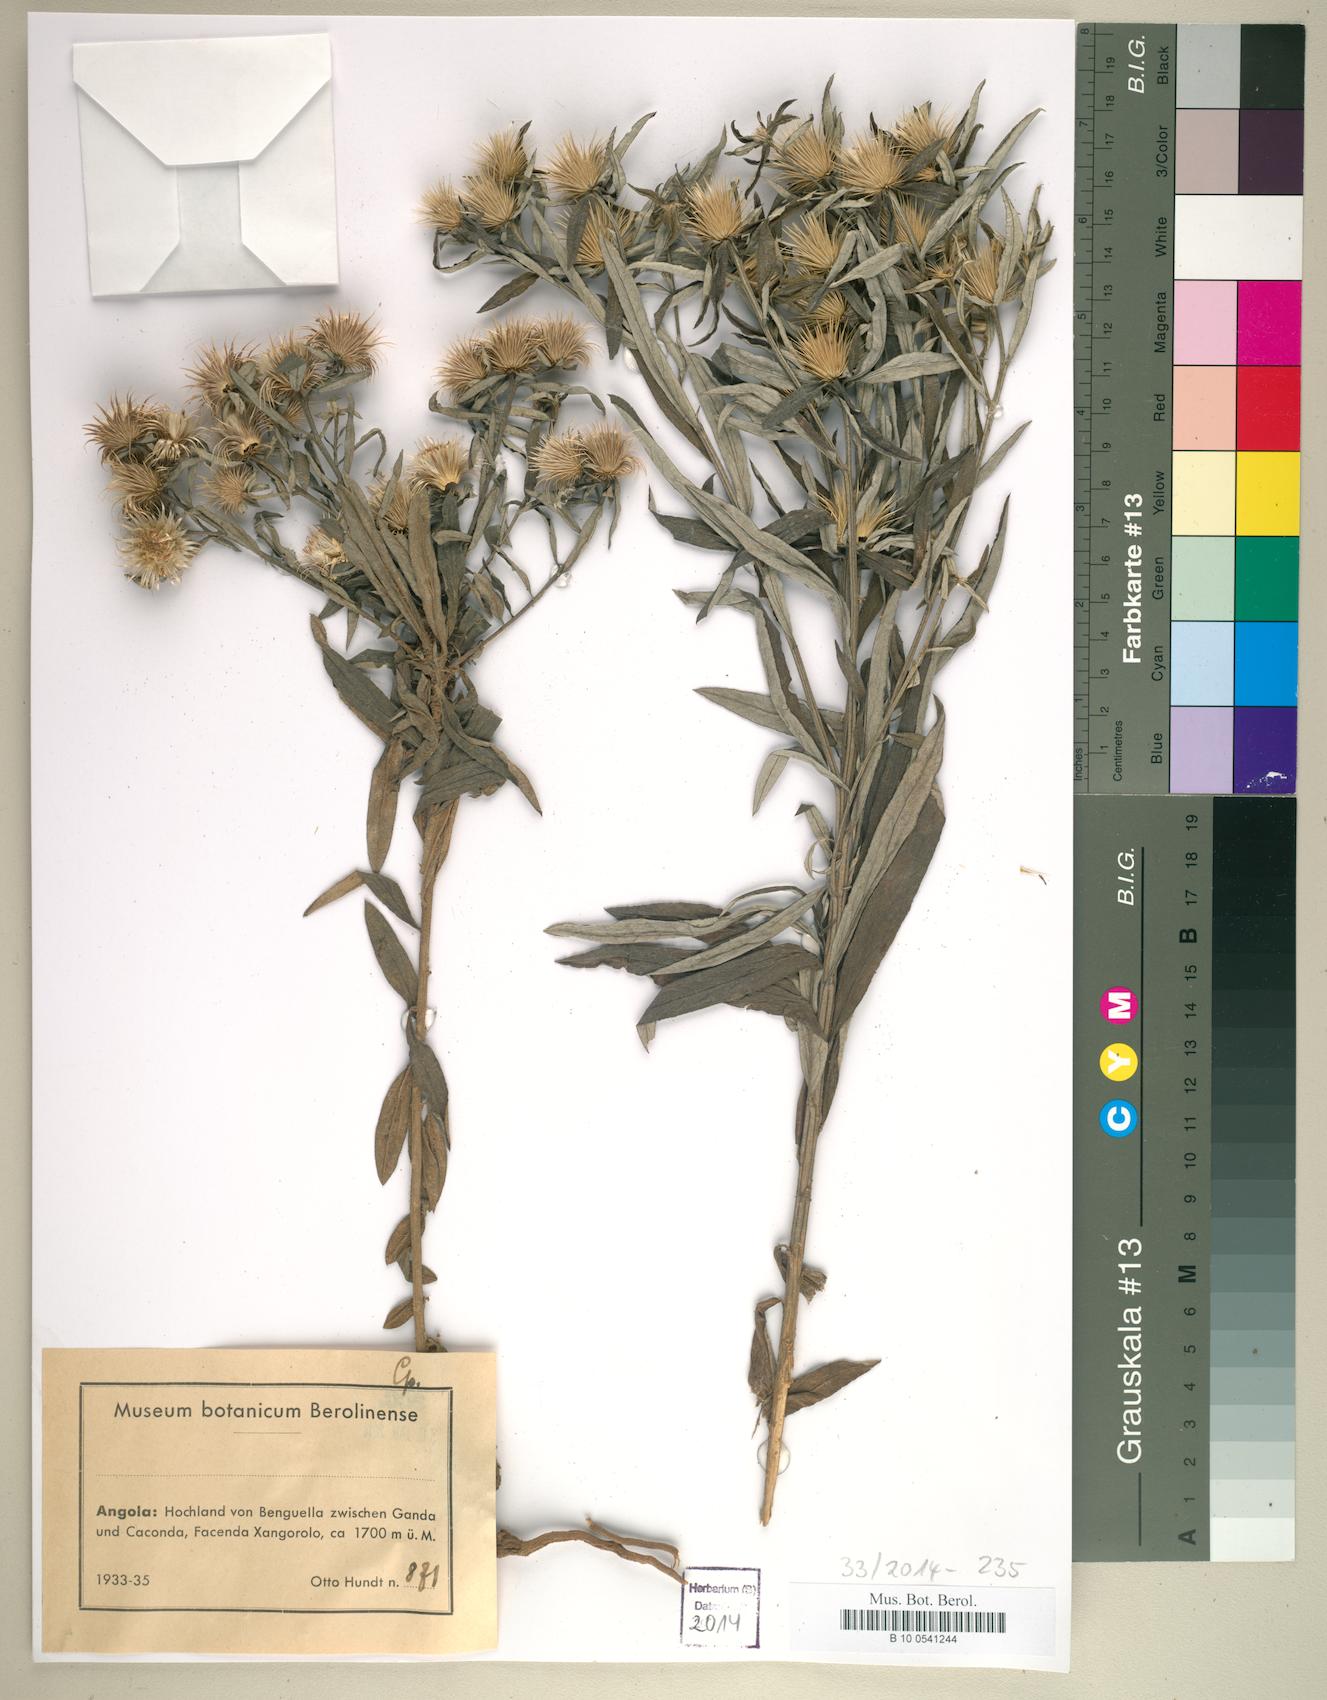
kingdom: Plantae
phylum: Tracheophyta
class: Magnoliopsida
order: Asterales
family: Asteraceae
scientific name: Asteraceae
